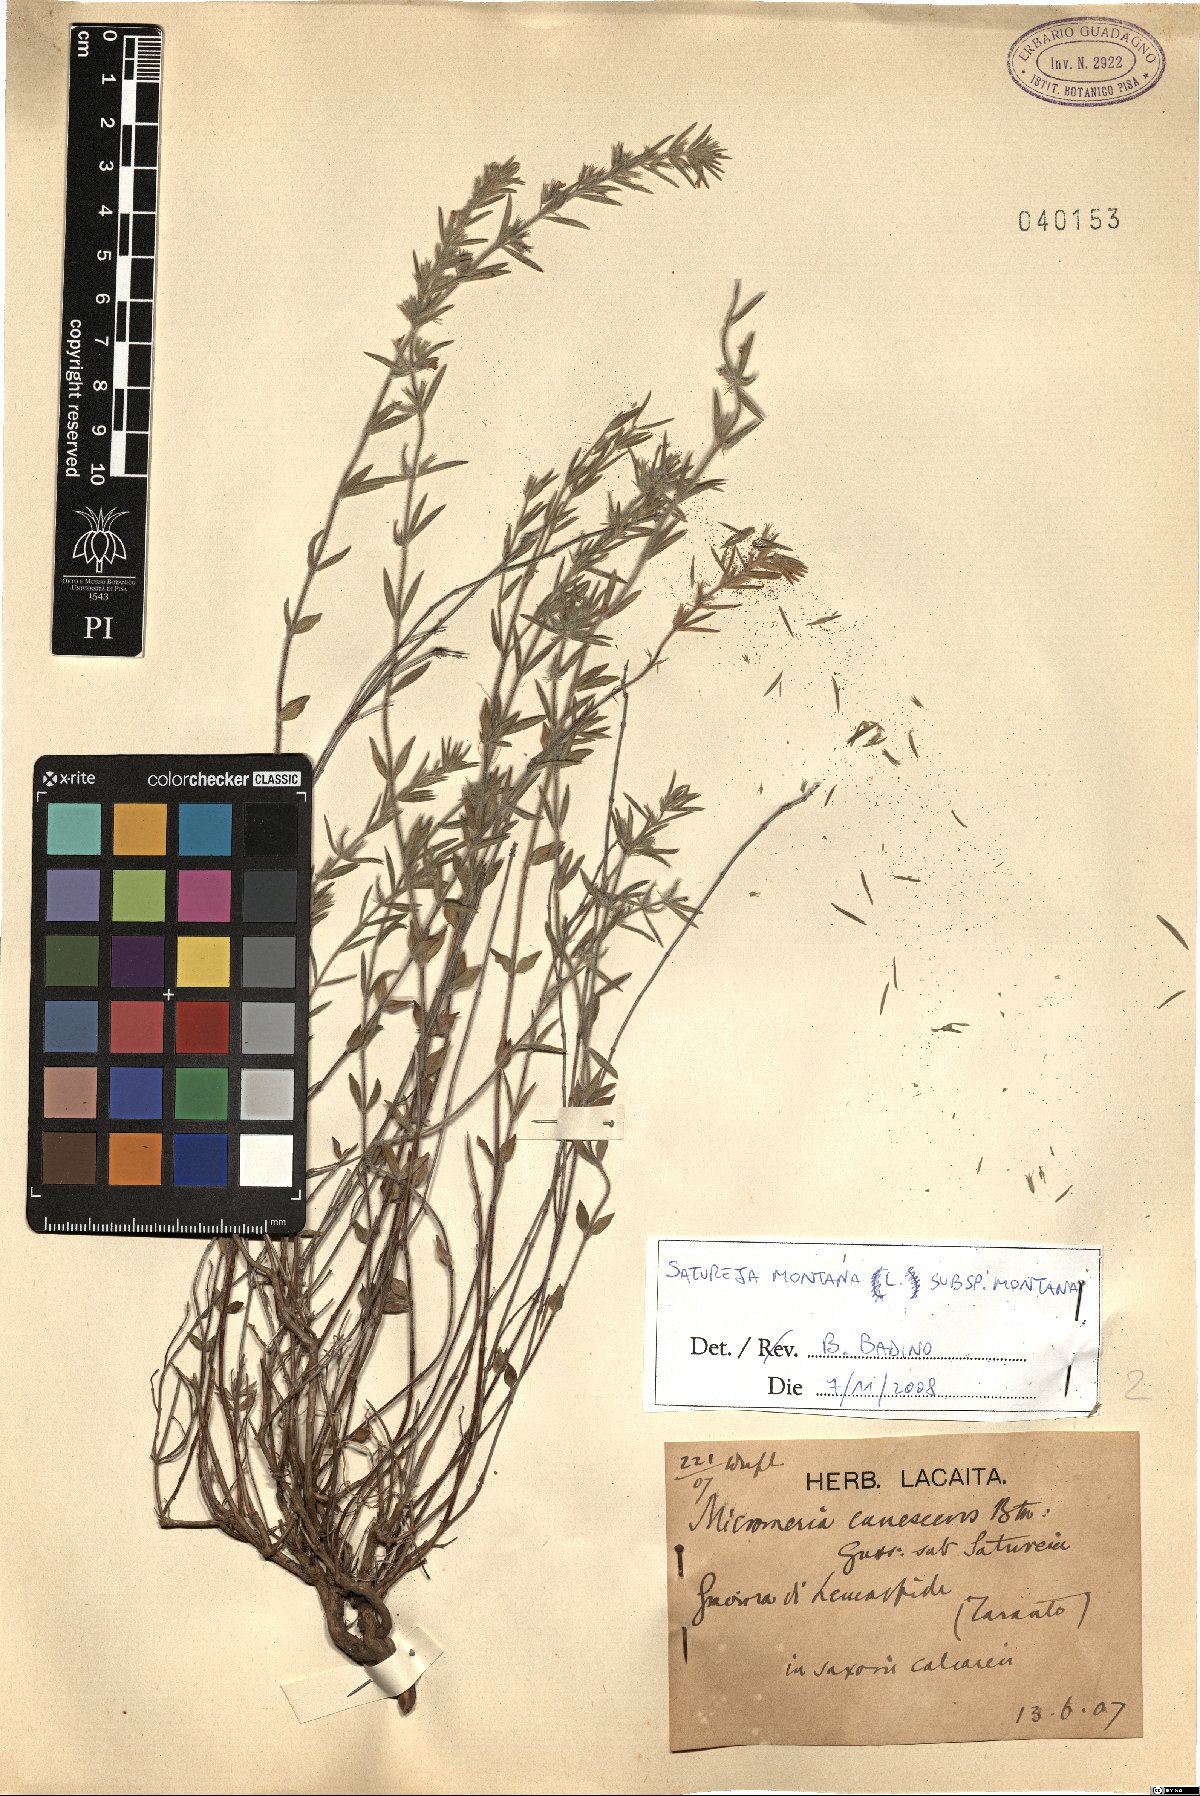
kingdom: Plantae
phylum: Tracheophyta
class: Magnoliopsida
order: Lamiales
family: Lamiaceae
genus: Satureja
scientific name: Satureja montana
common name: Winter savory
